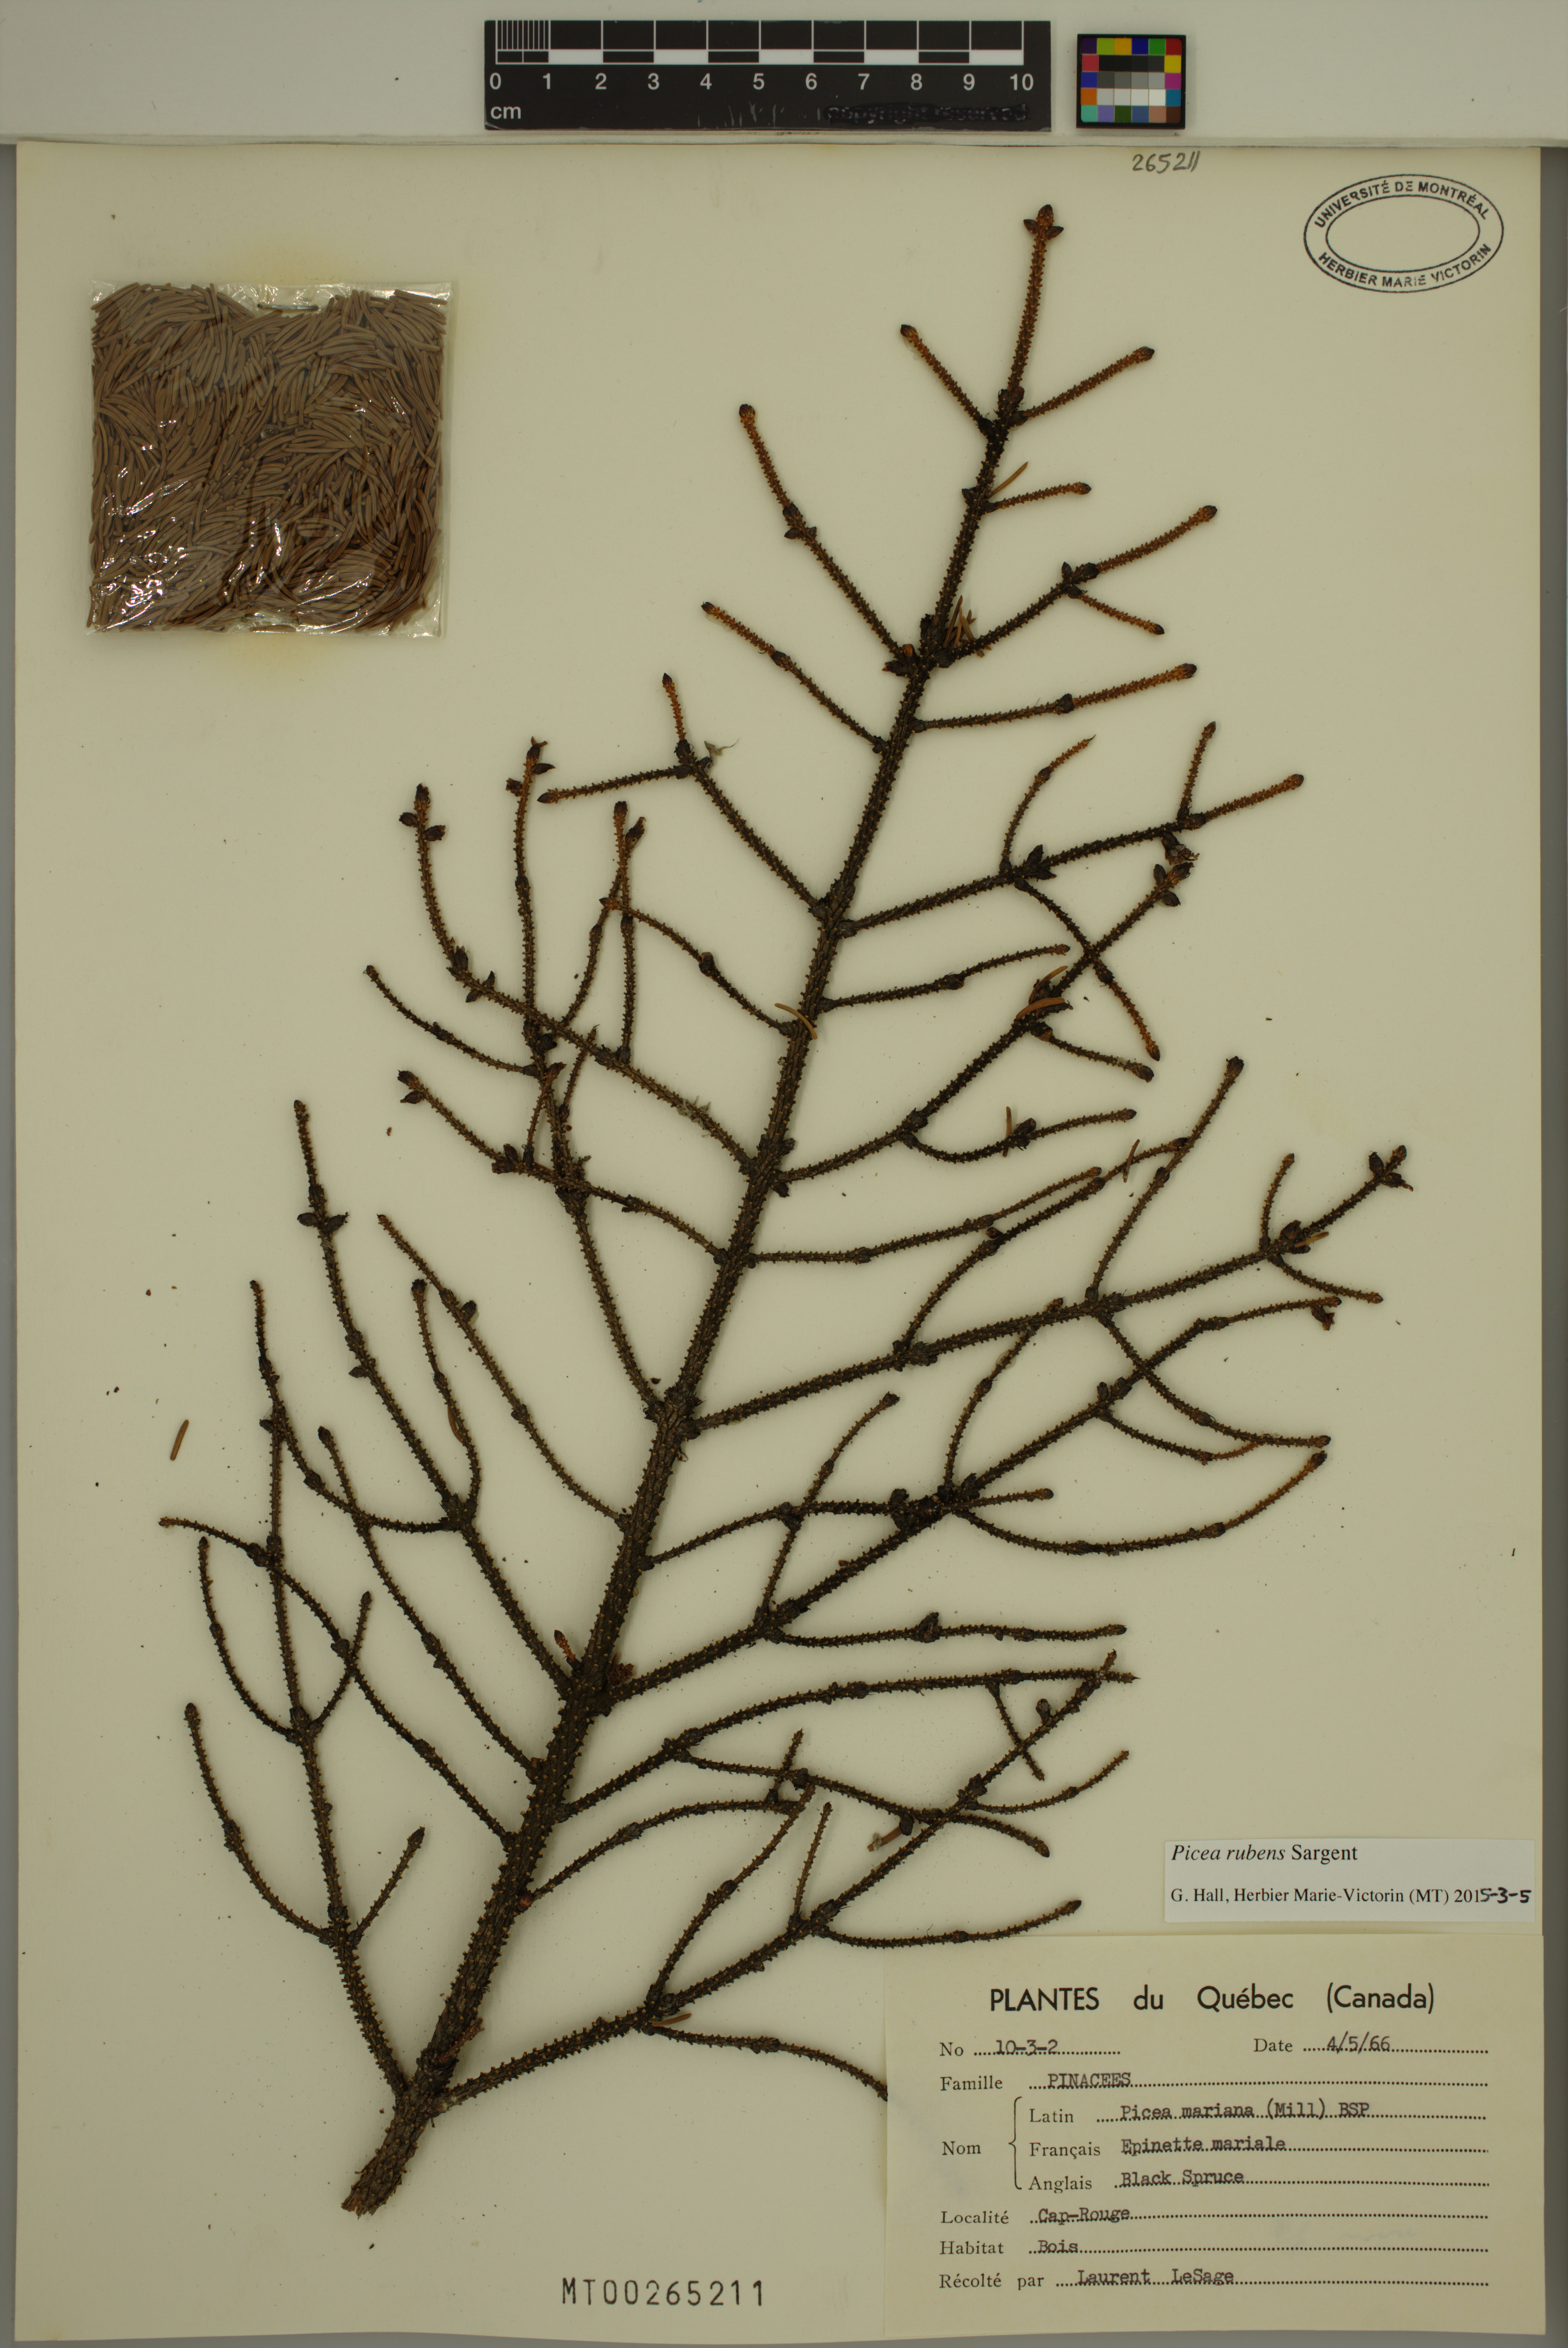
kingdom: Plantae
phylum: Tracheophyta
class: Pinopsida
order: Pinales
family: Pinaceae
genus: Picea
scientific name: Picea rubens
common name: Red spruce
